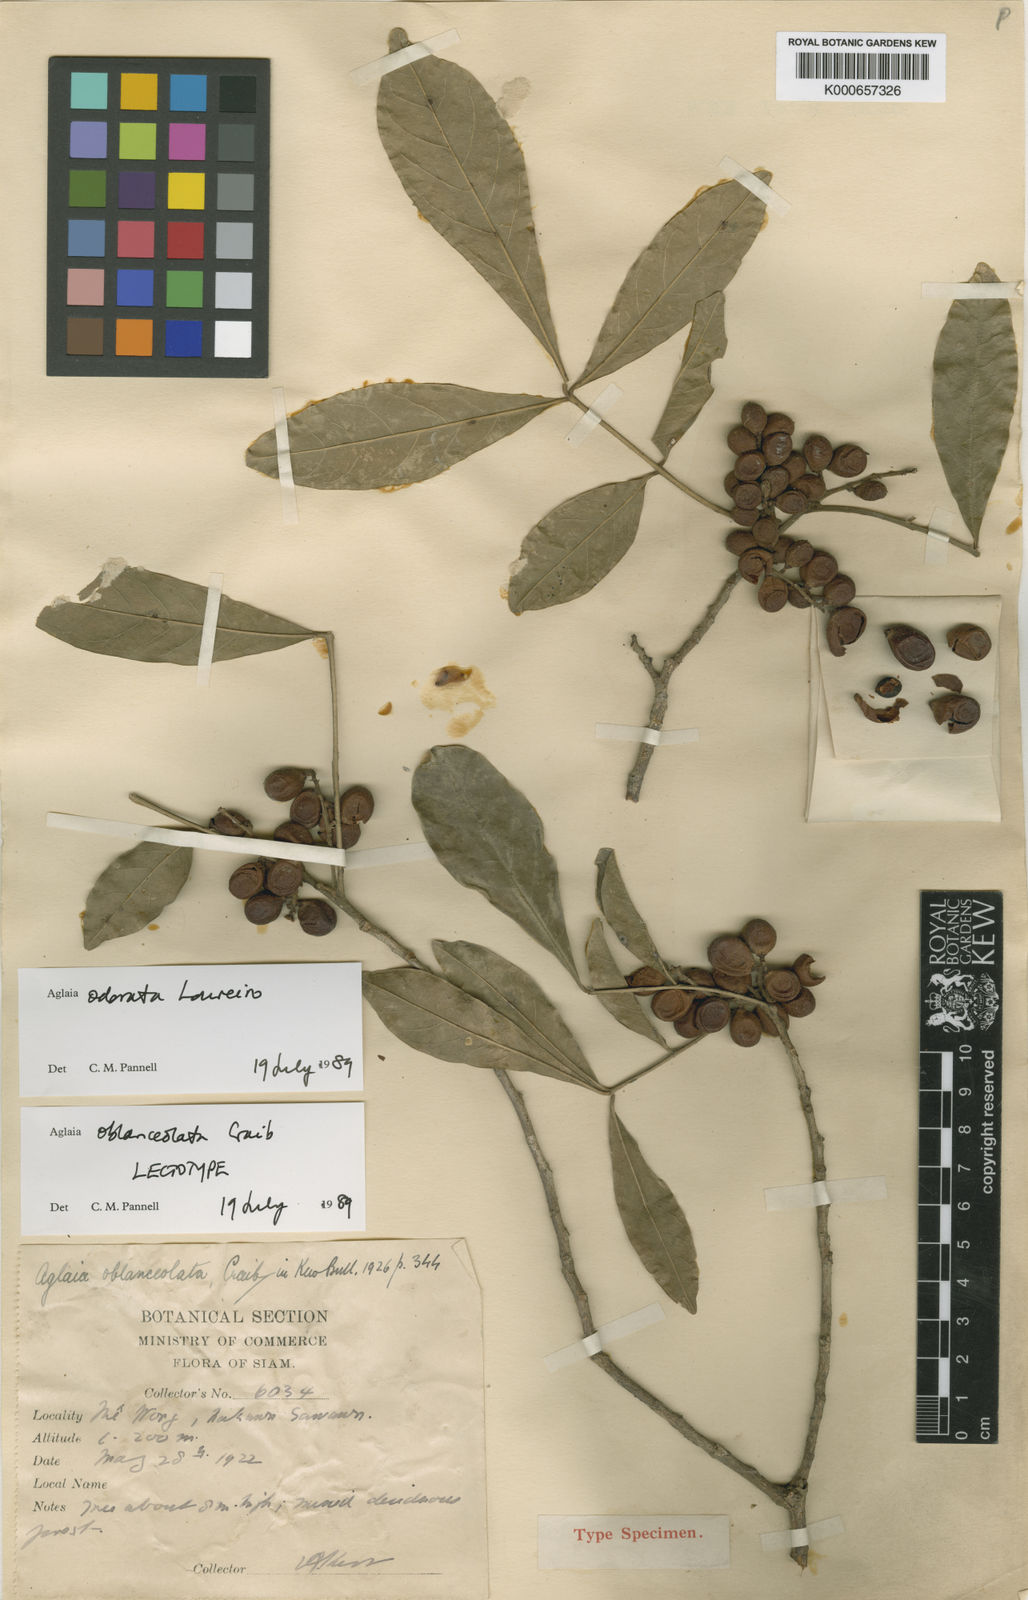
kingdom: Plantae
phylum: Tracheophyta
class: Magnoliopsida
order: Sapindales
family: Meliaceae
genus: Aglaia
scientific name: Aglaia odorata
